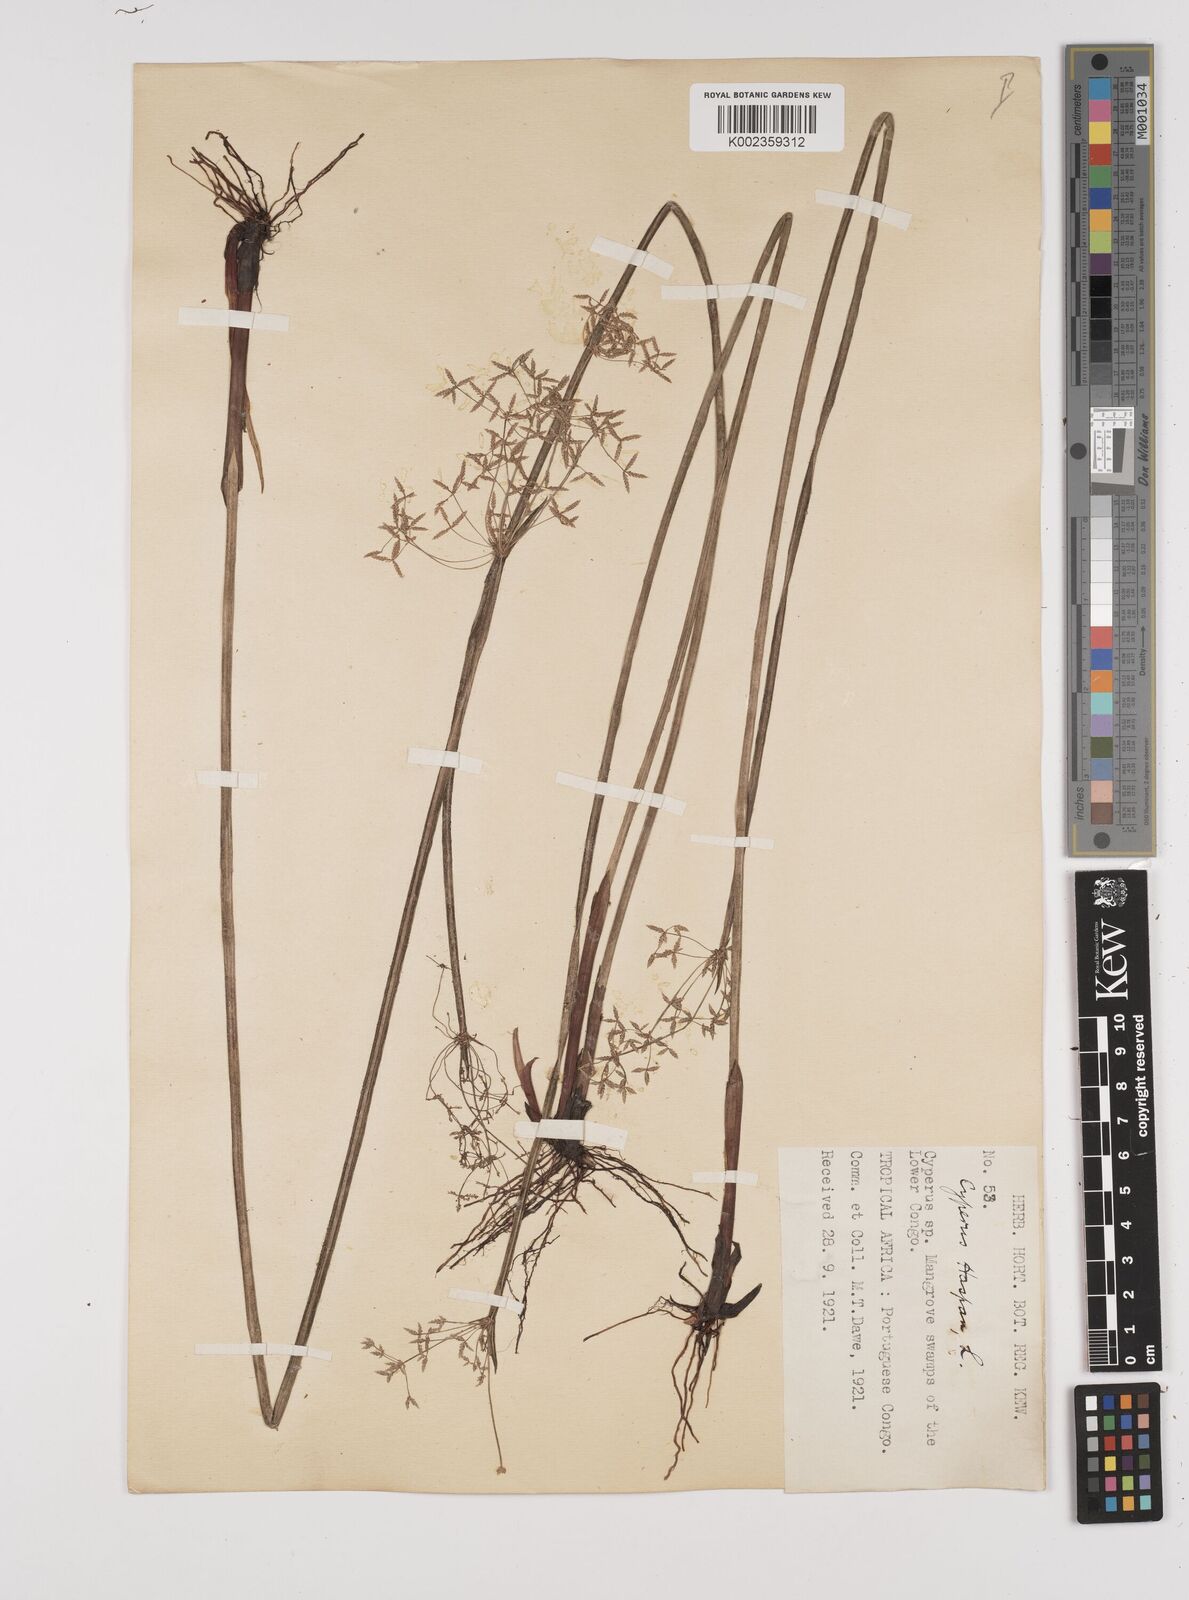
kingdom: Plantae
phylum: Tracheophyta
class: Liliopsida
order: Poales
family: Cyperaceae
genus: Cyperus
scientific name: Cyperus haspan
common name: Haspan flatsedge
